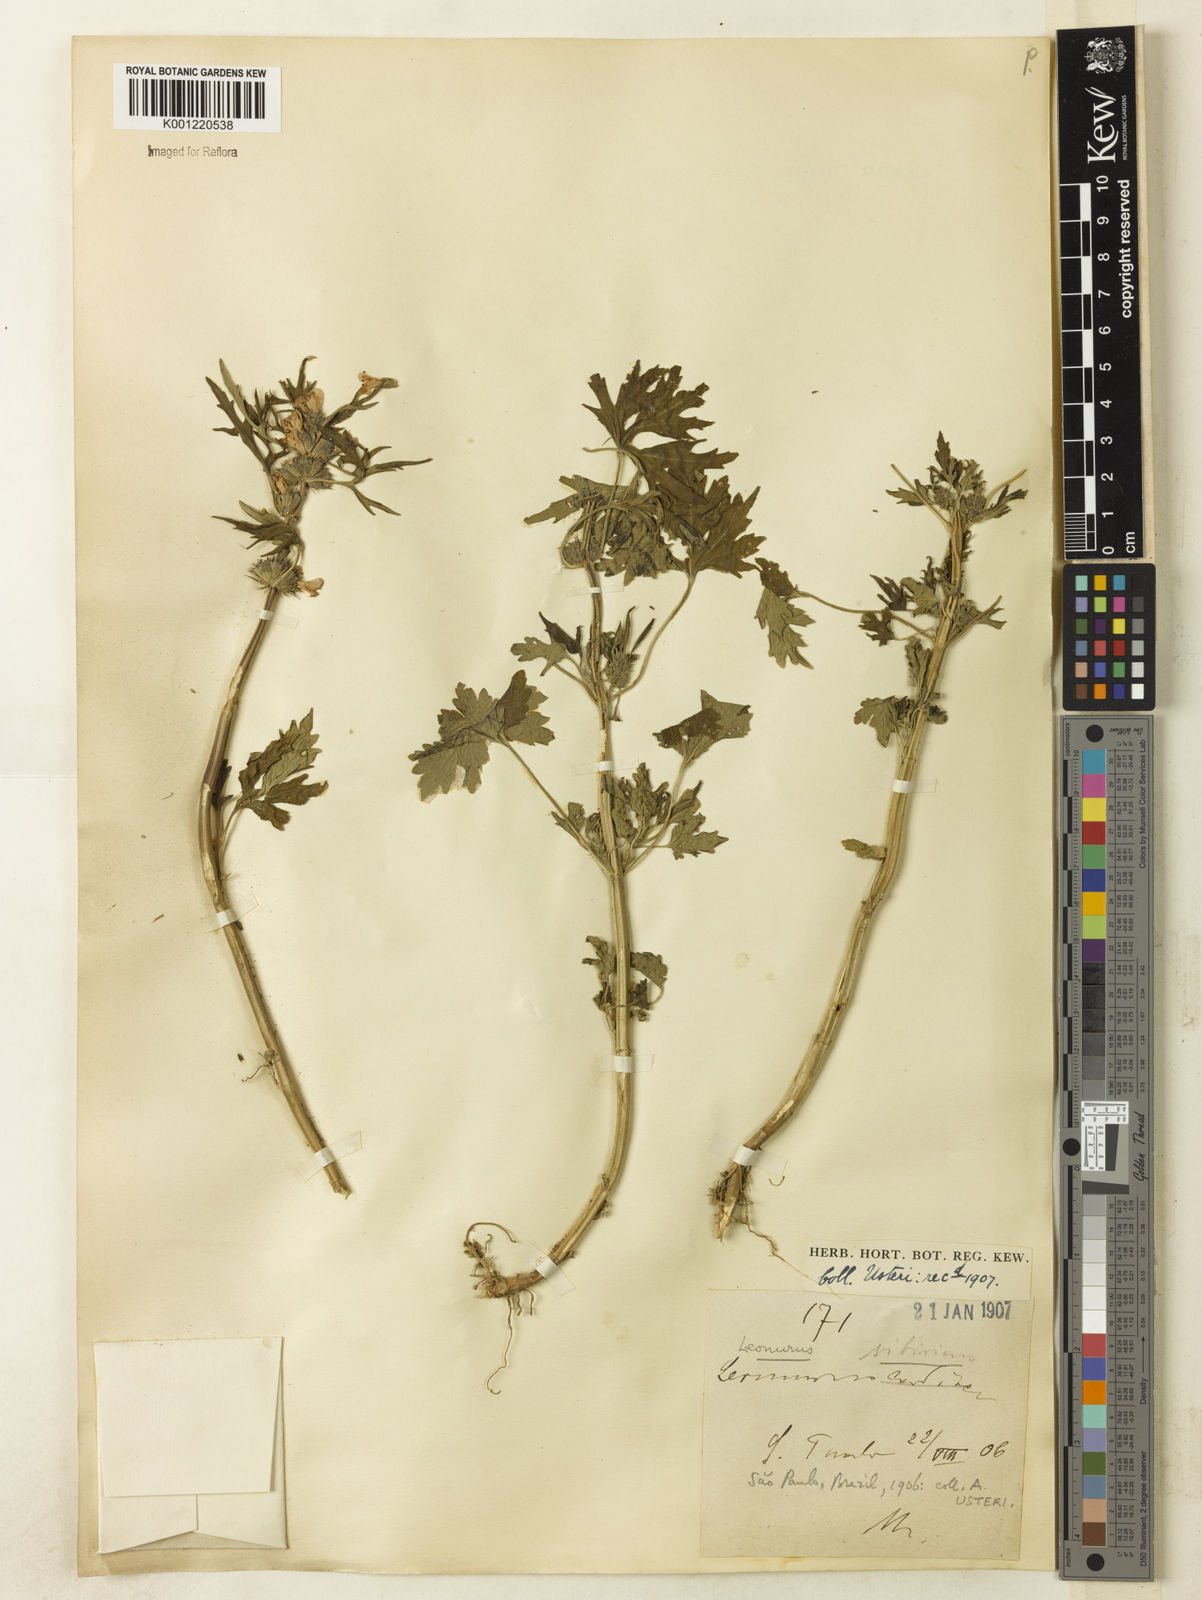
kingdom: Plantae
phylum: Tracheophyta
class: Magnoliopsida
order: Lamiales
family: Lamiaceae
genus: Leonurus
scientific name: Leonurus japonicus
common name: Honeyweed
